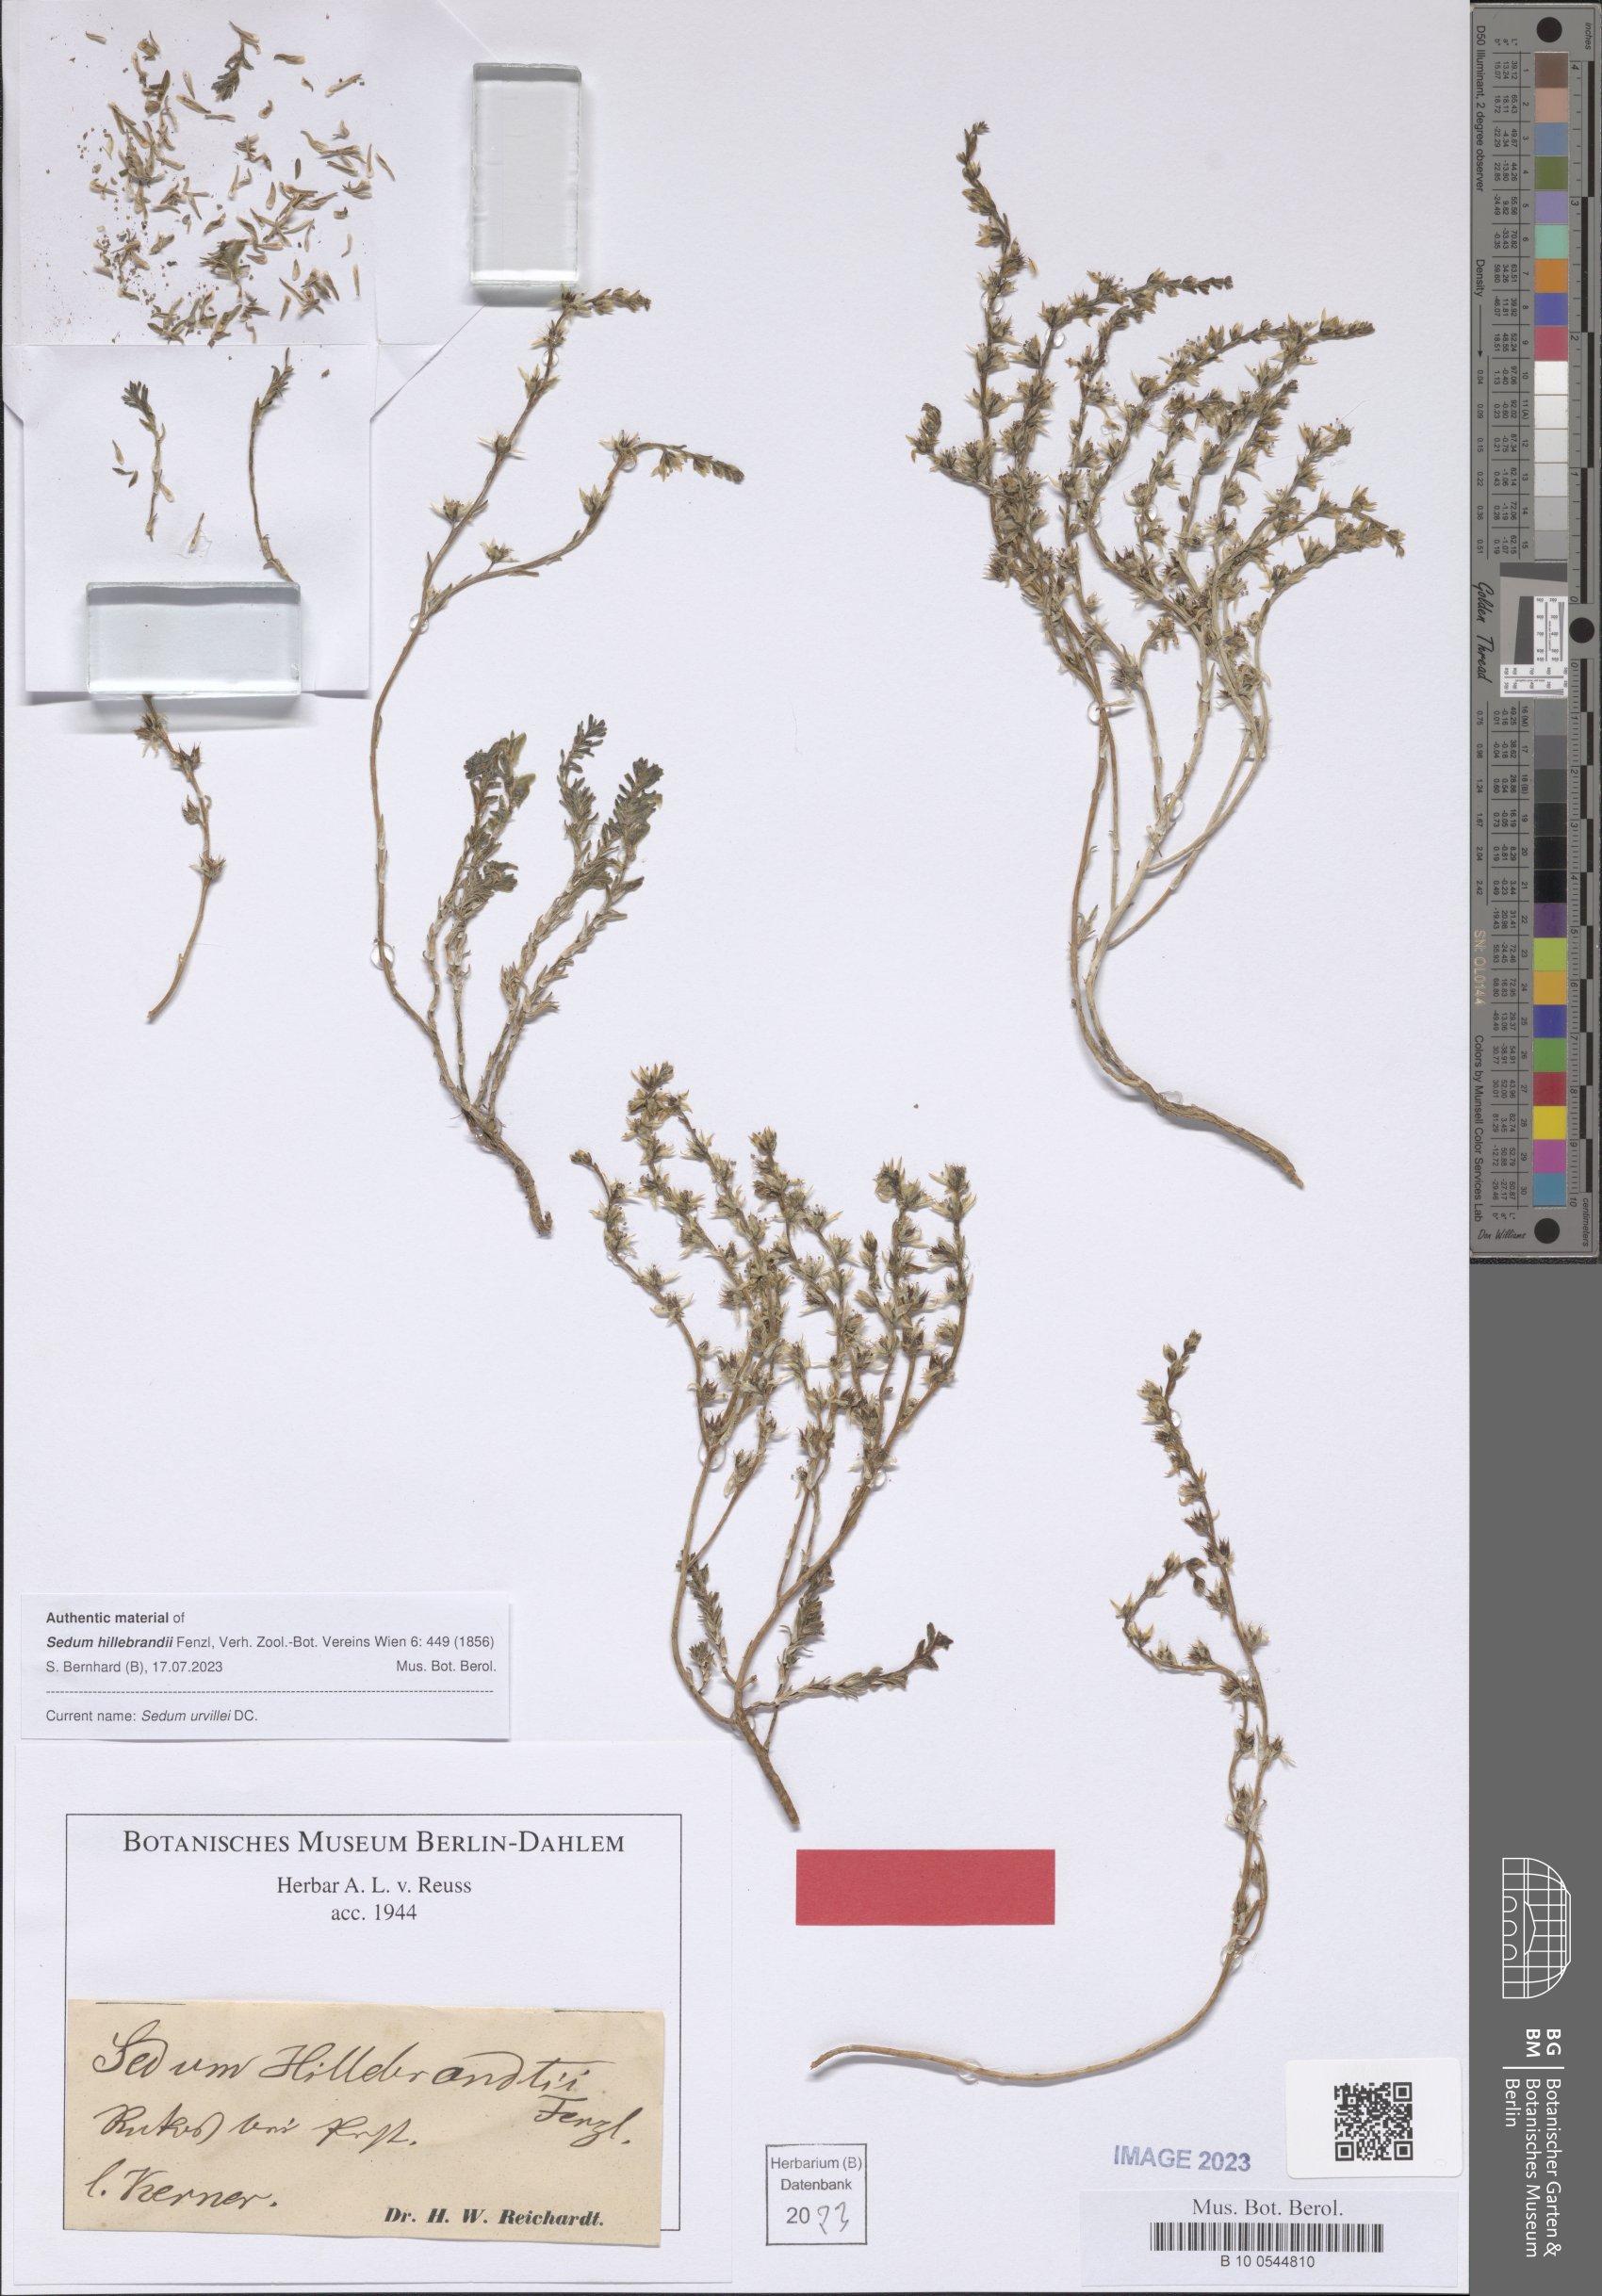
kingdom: Plantae
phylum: Tracheophyta
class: Magnoliopsida
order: Saxifragales
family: Crassulaceae
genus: Sedum
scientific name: Sedum urvillei
